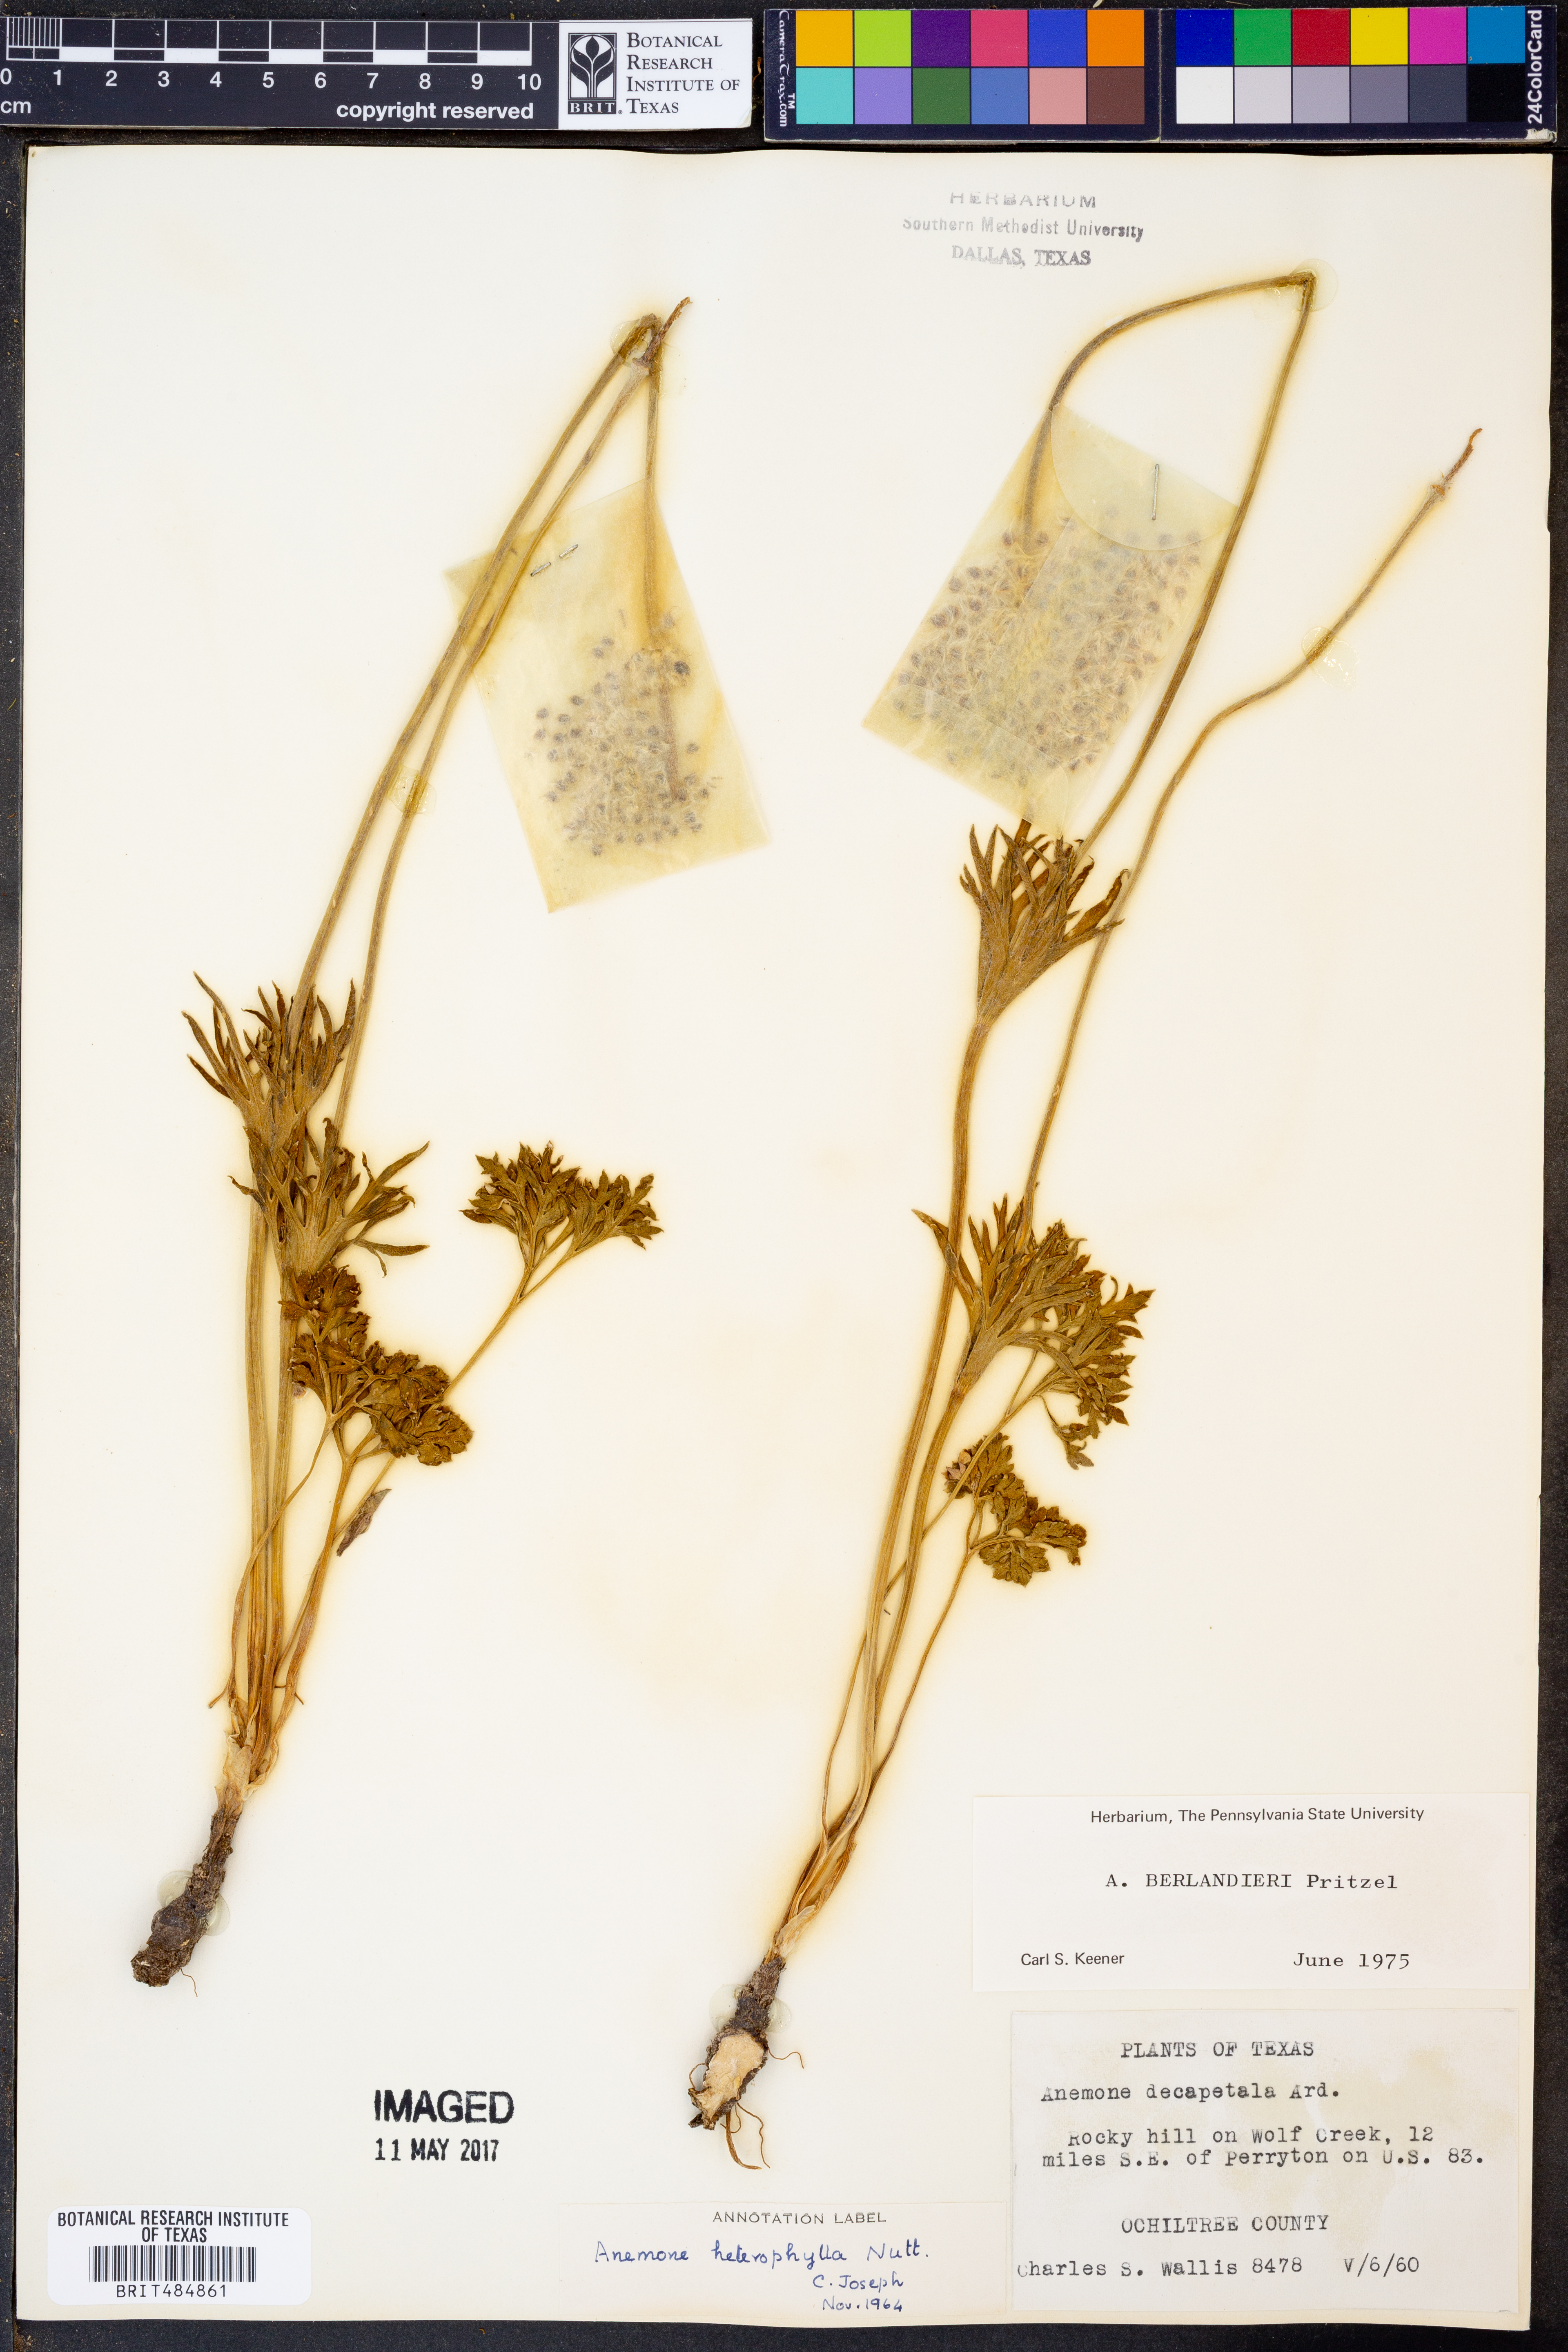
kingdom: Plantae
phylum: Tracheophyta
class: Magnoliopsida
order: Ranunculales
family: Ranunculaceae
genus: Anemone
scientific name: Anemone berlandieri
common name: Ten-petal anemone
